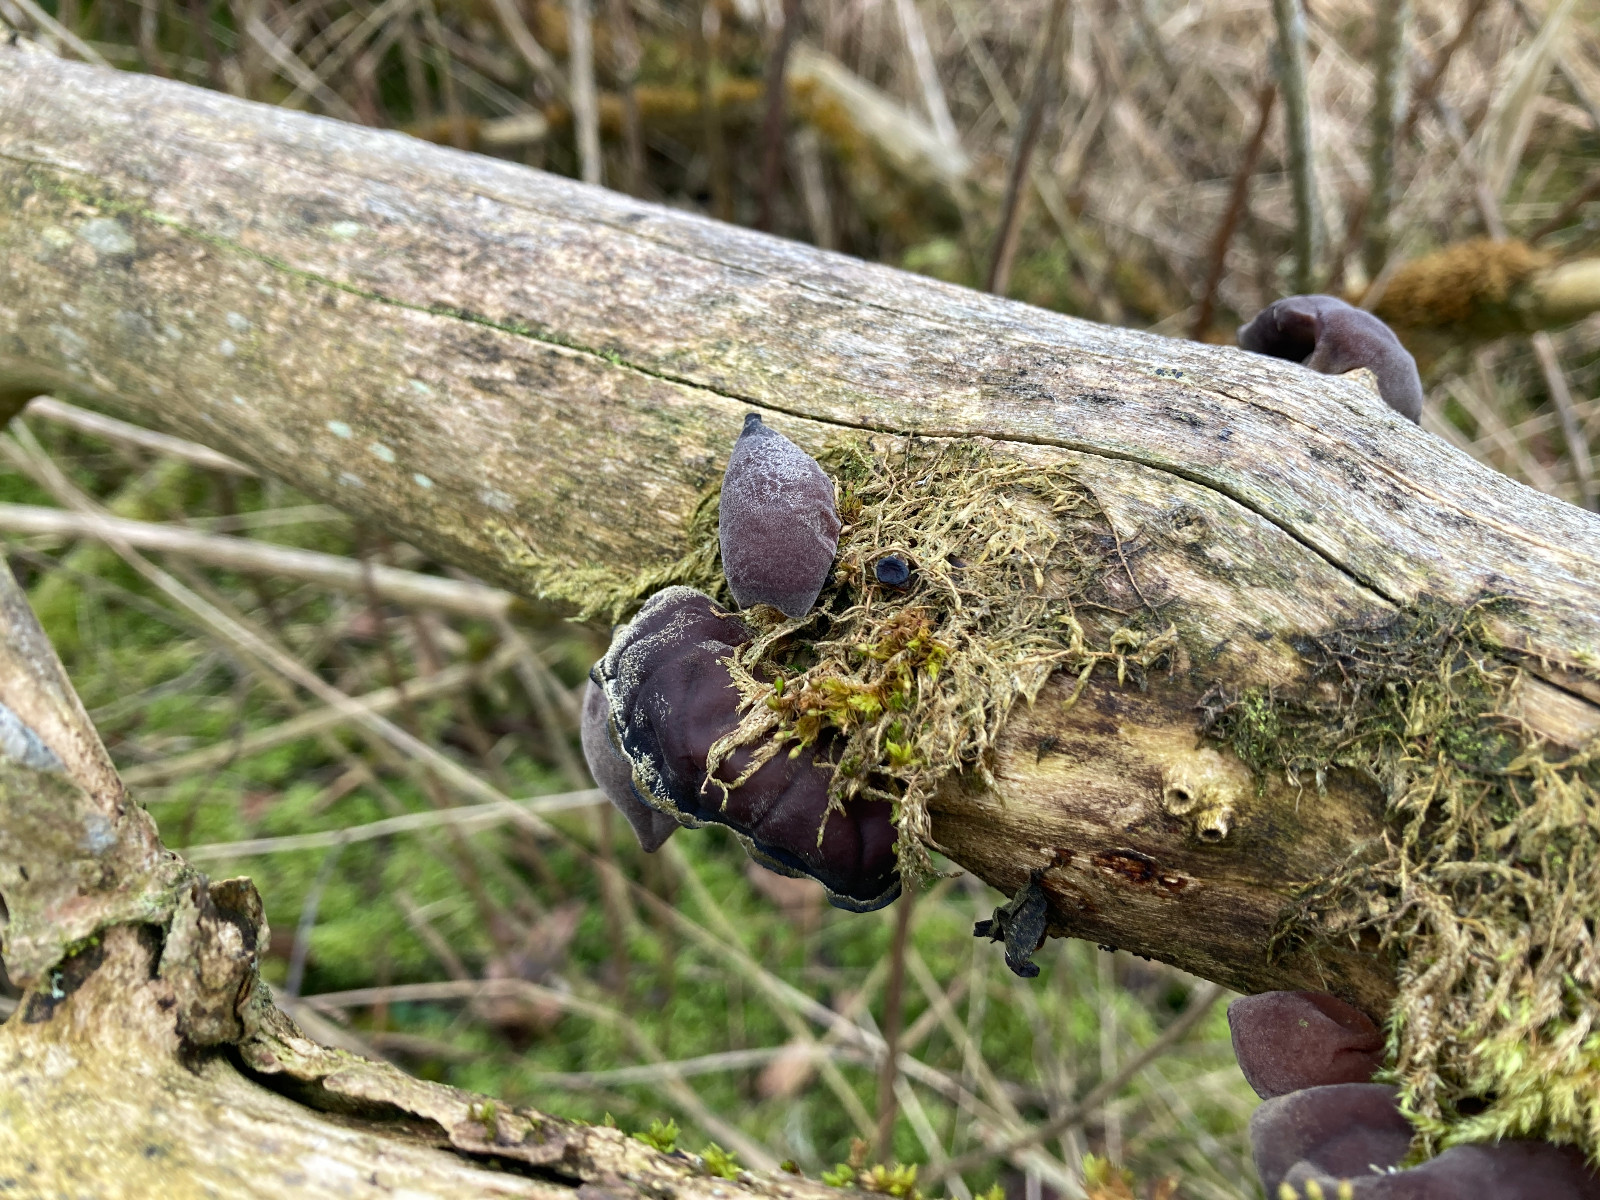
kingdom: Fungi
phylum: Basidiomycota
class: Agaricomycetes
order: Auriculariales
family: Auriculariaceae
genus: Auricularia
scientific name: Auricularia auricula-judae
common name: almindelig judasøre
